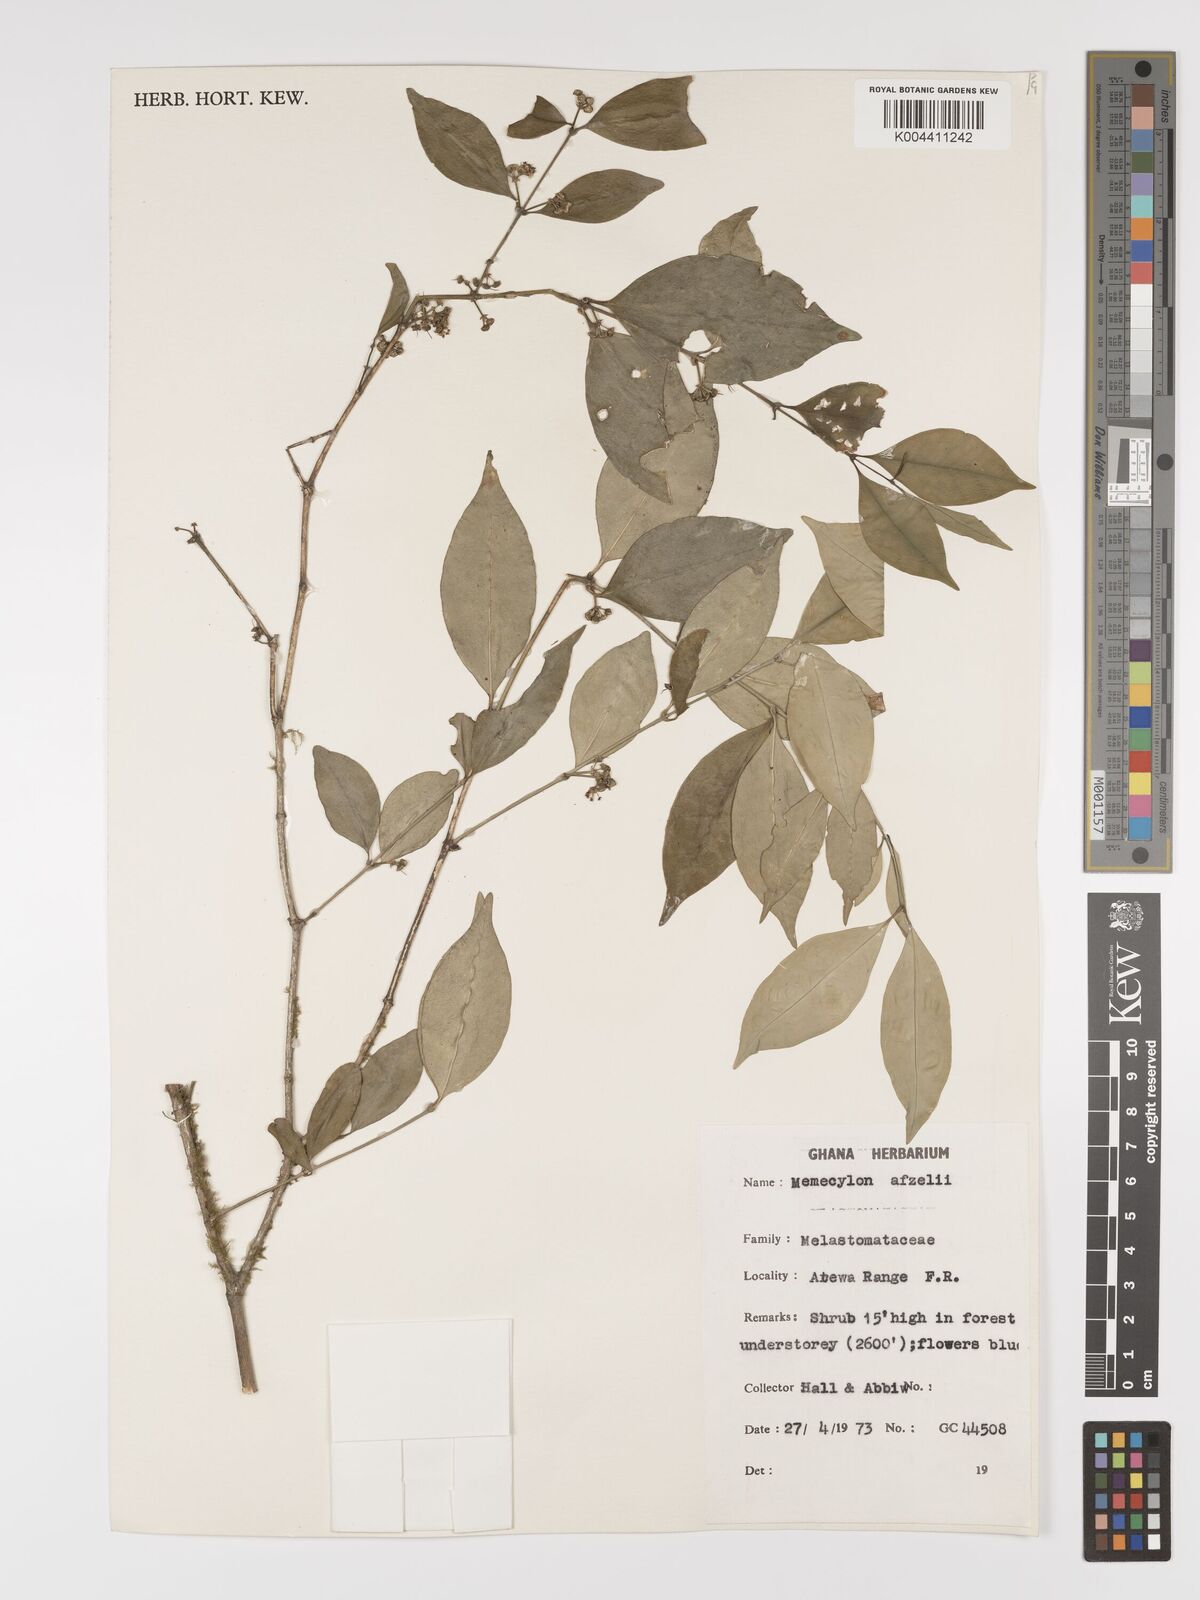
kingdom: Plantae
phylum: Tracheophyta
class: Magnoliopsida
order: Myrtales
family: Melastomataceae
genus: Memecylon
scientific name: Memecylon afzelii
